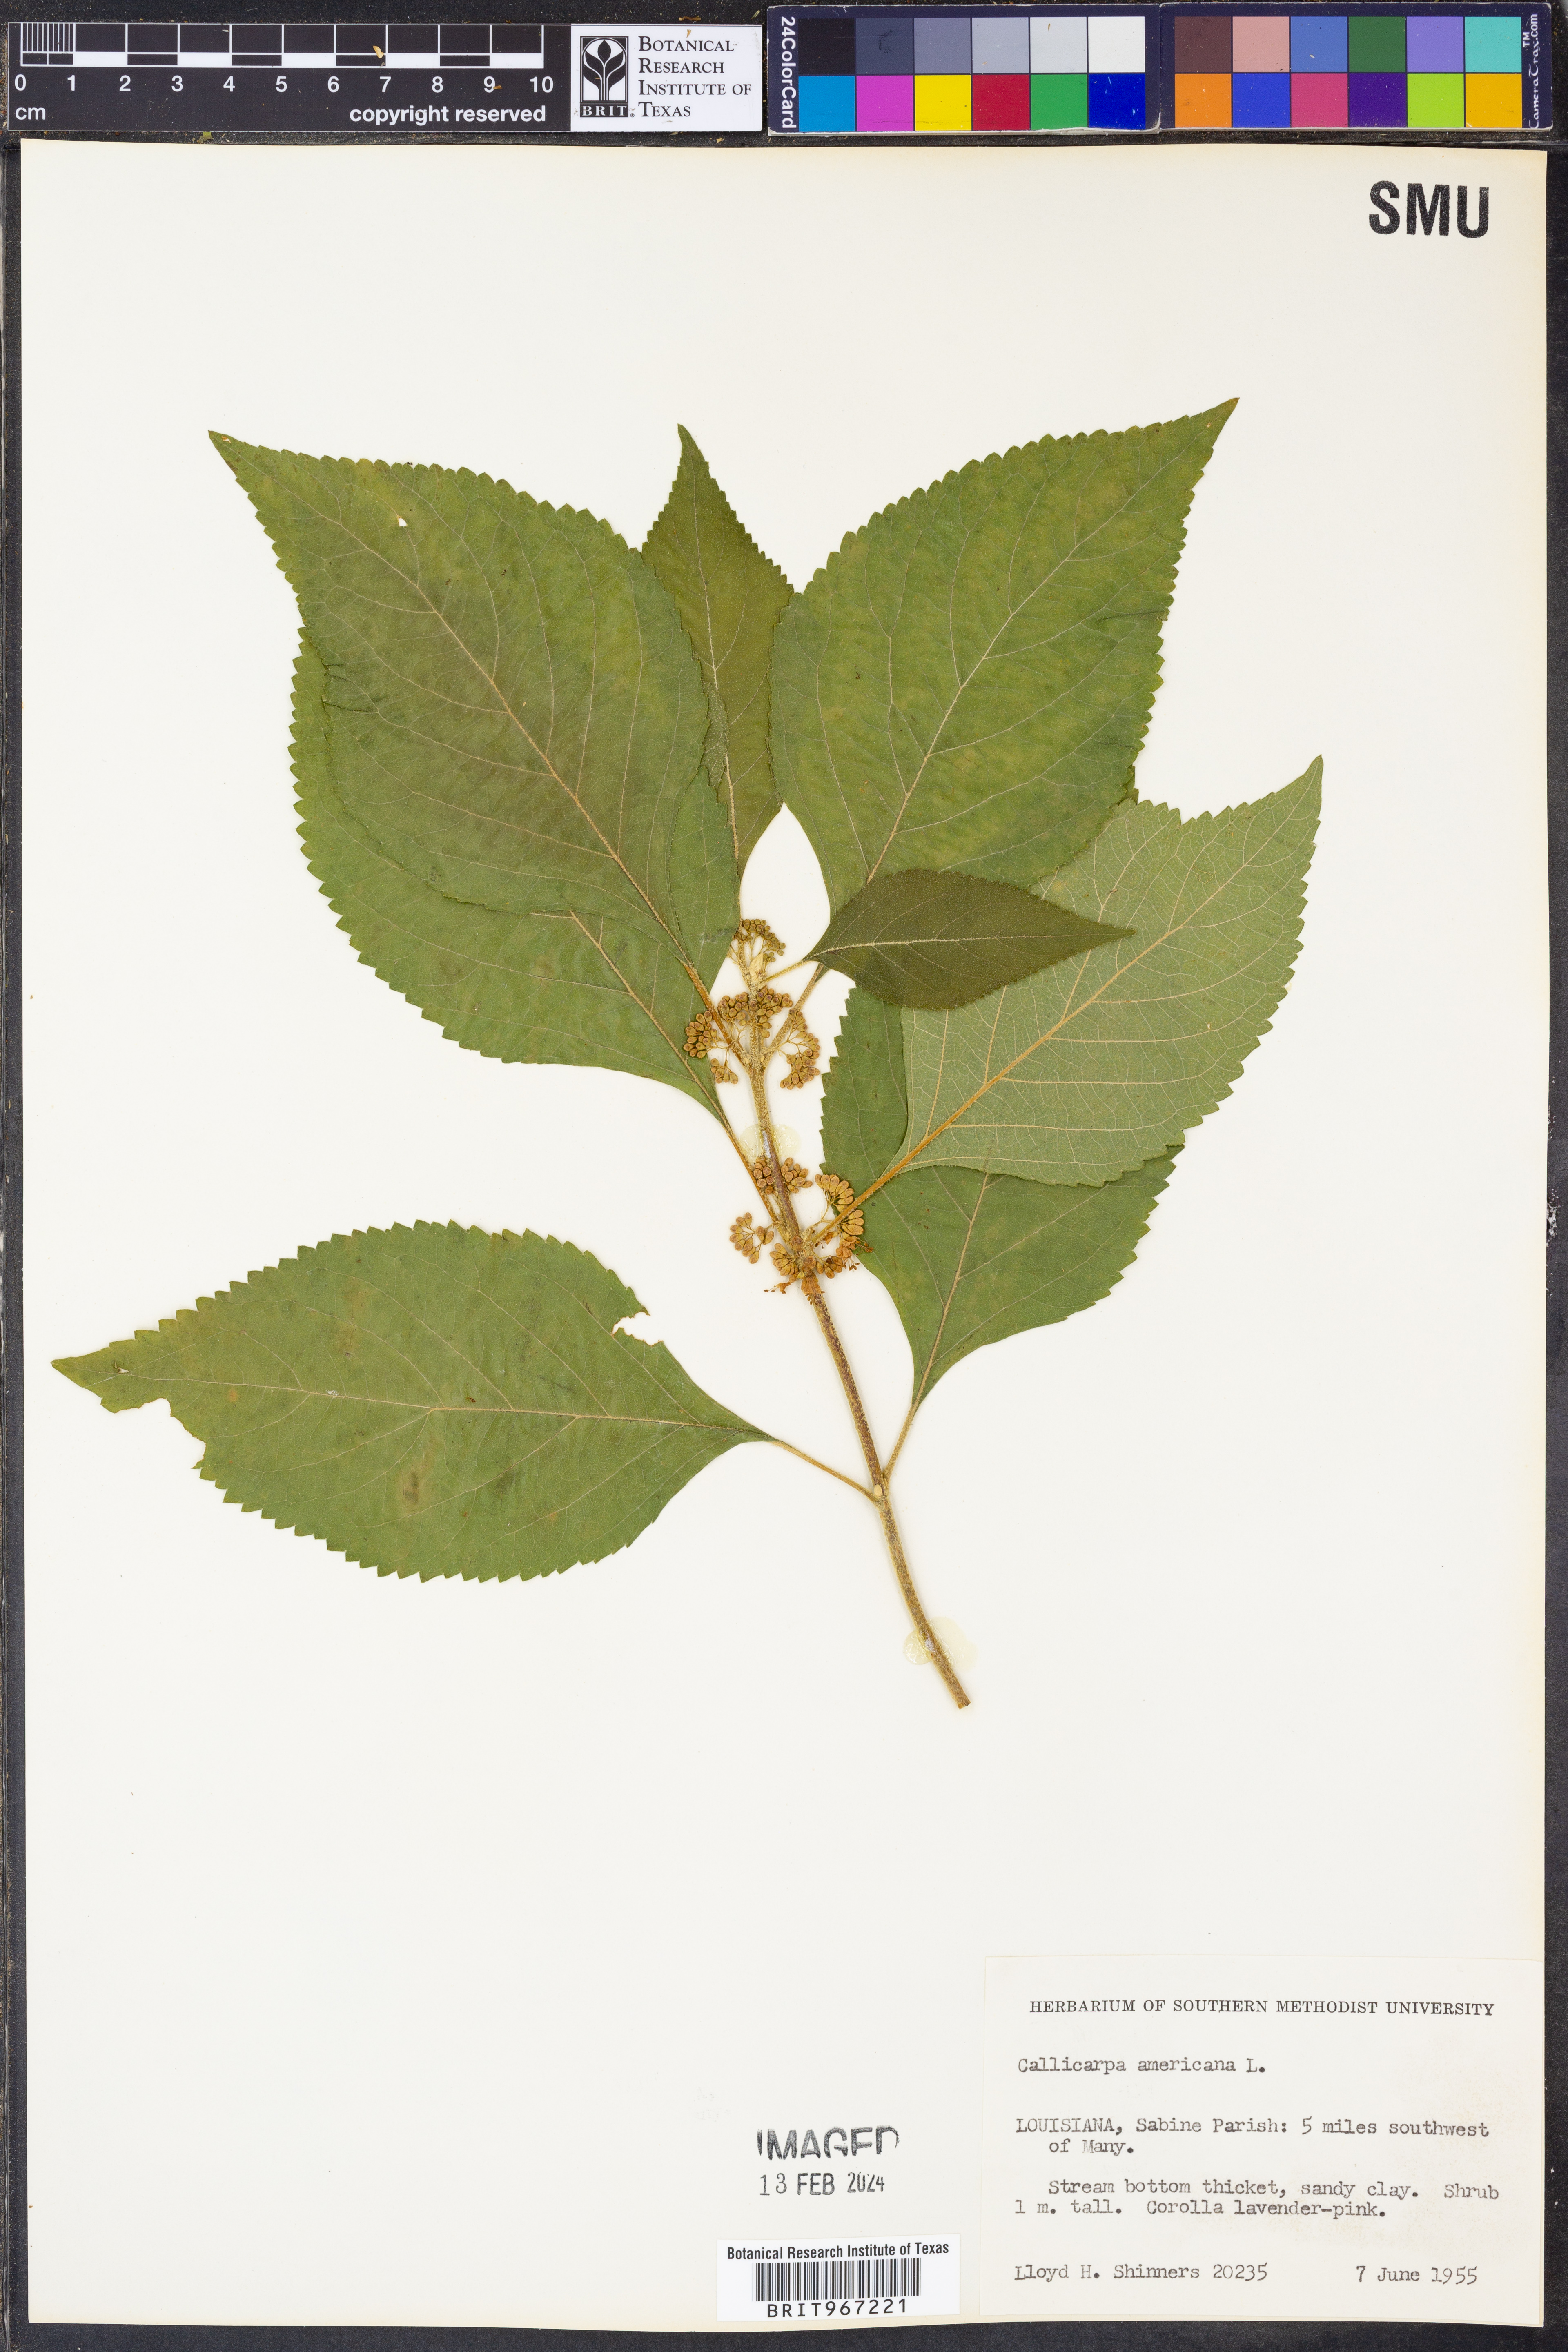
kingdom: Plantae
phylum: Tracheophyta
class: Magnoliopsida
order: Lamiales
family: Lamiaceae
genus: Callicarpa
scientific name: Callicarpa americana
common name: American beautyberry
